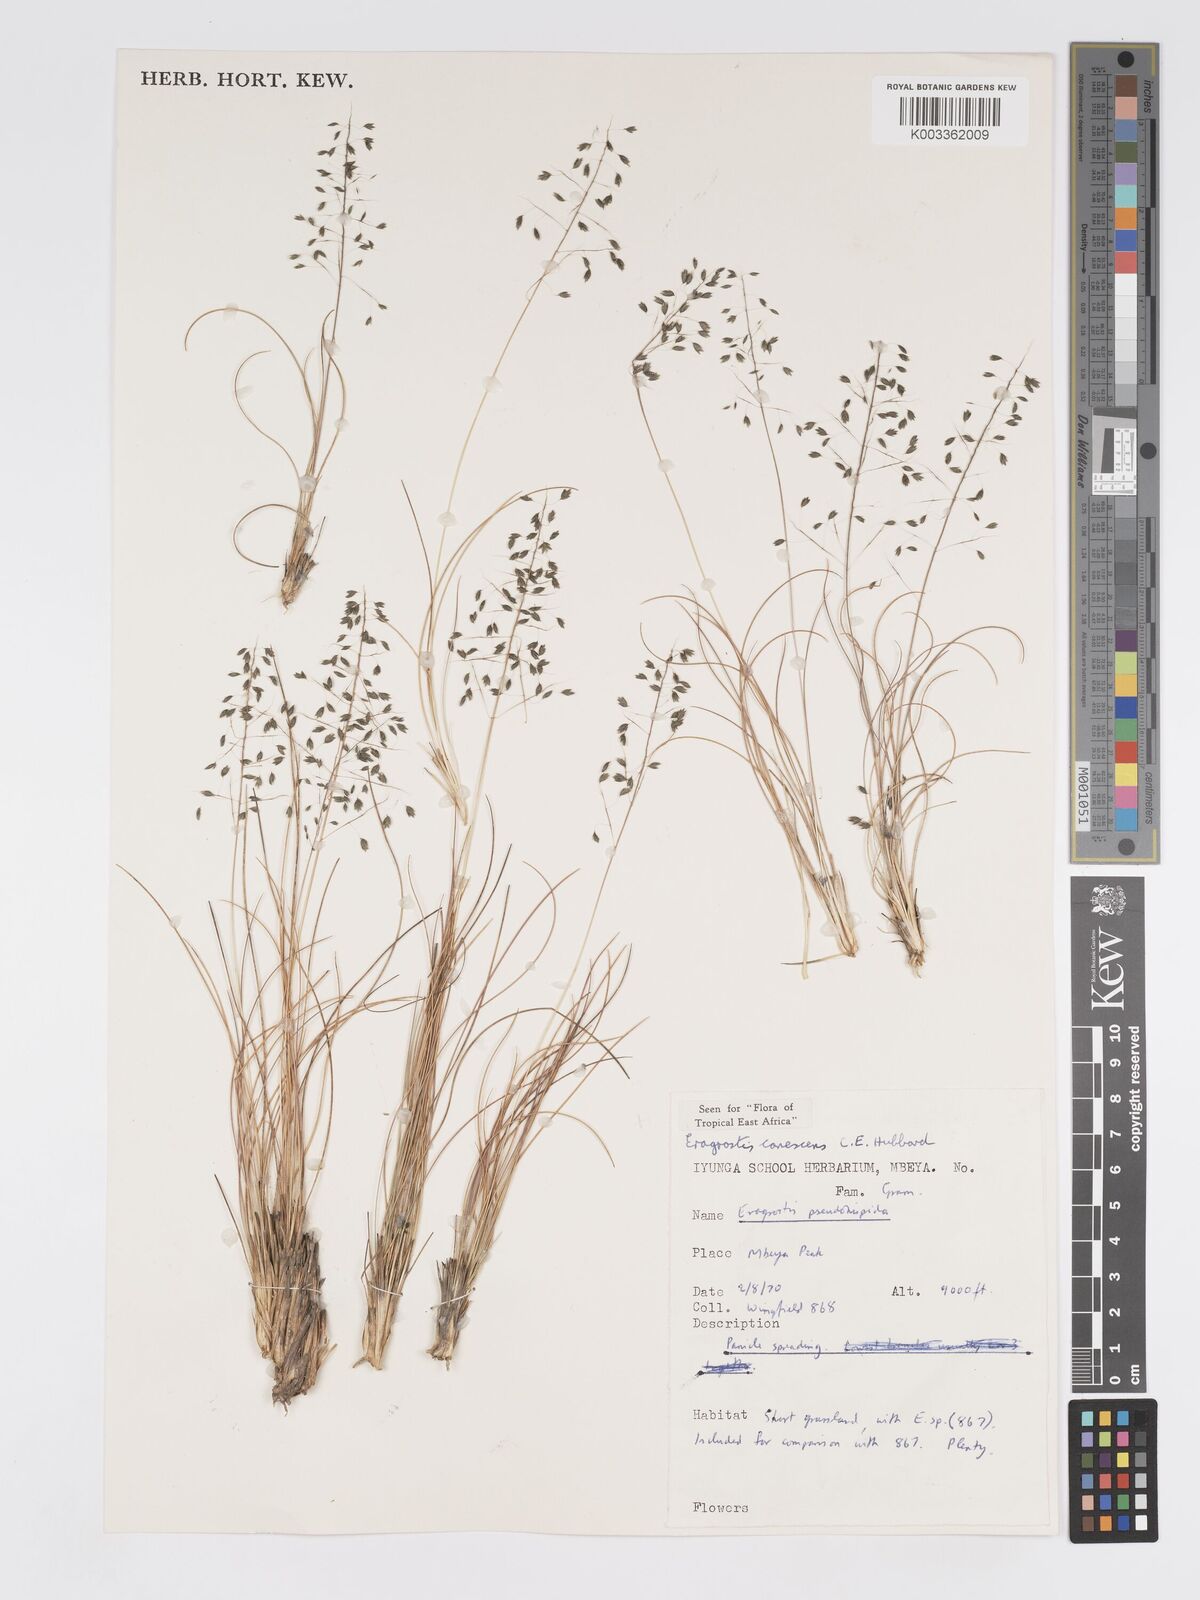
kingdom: Plantae
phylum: Tracheophyta
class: Liliopsida
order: Poales
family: Poaceae
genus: Eragrostis
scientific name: Eragrostis canescens
